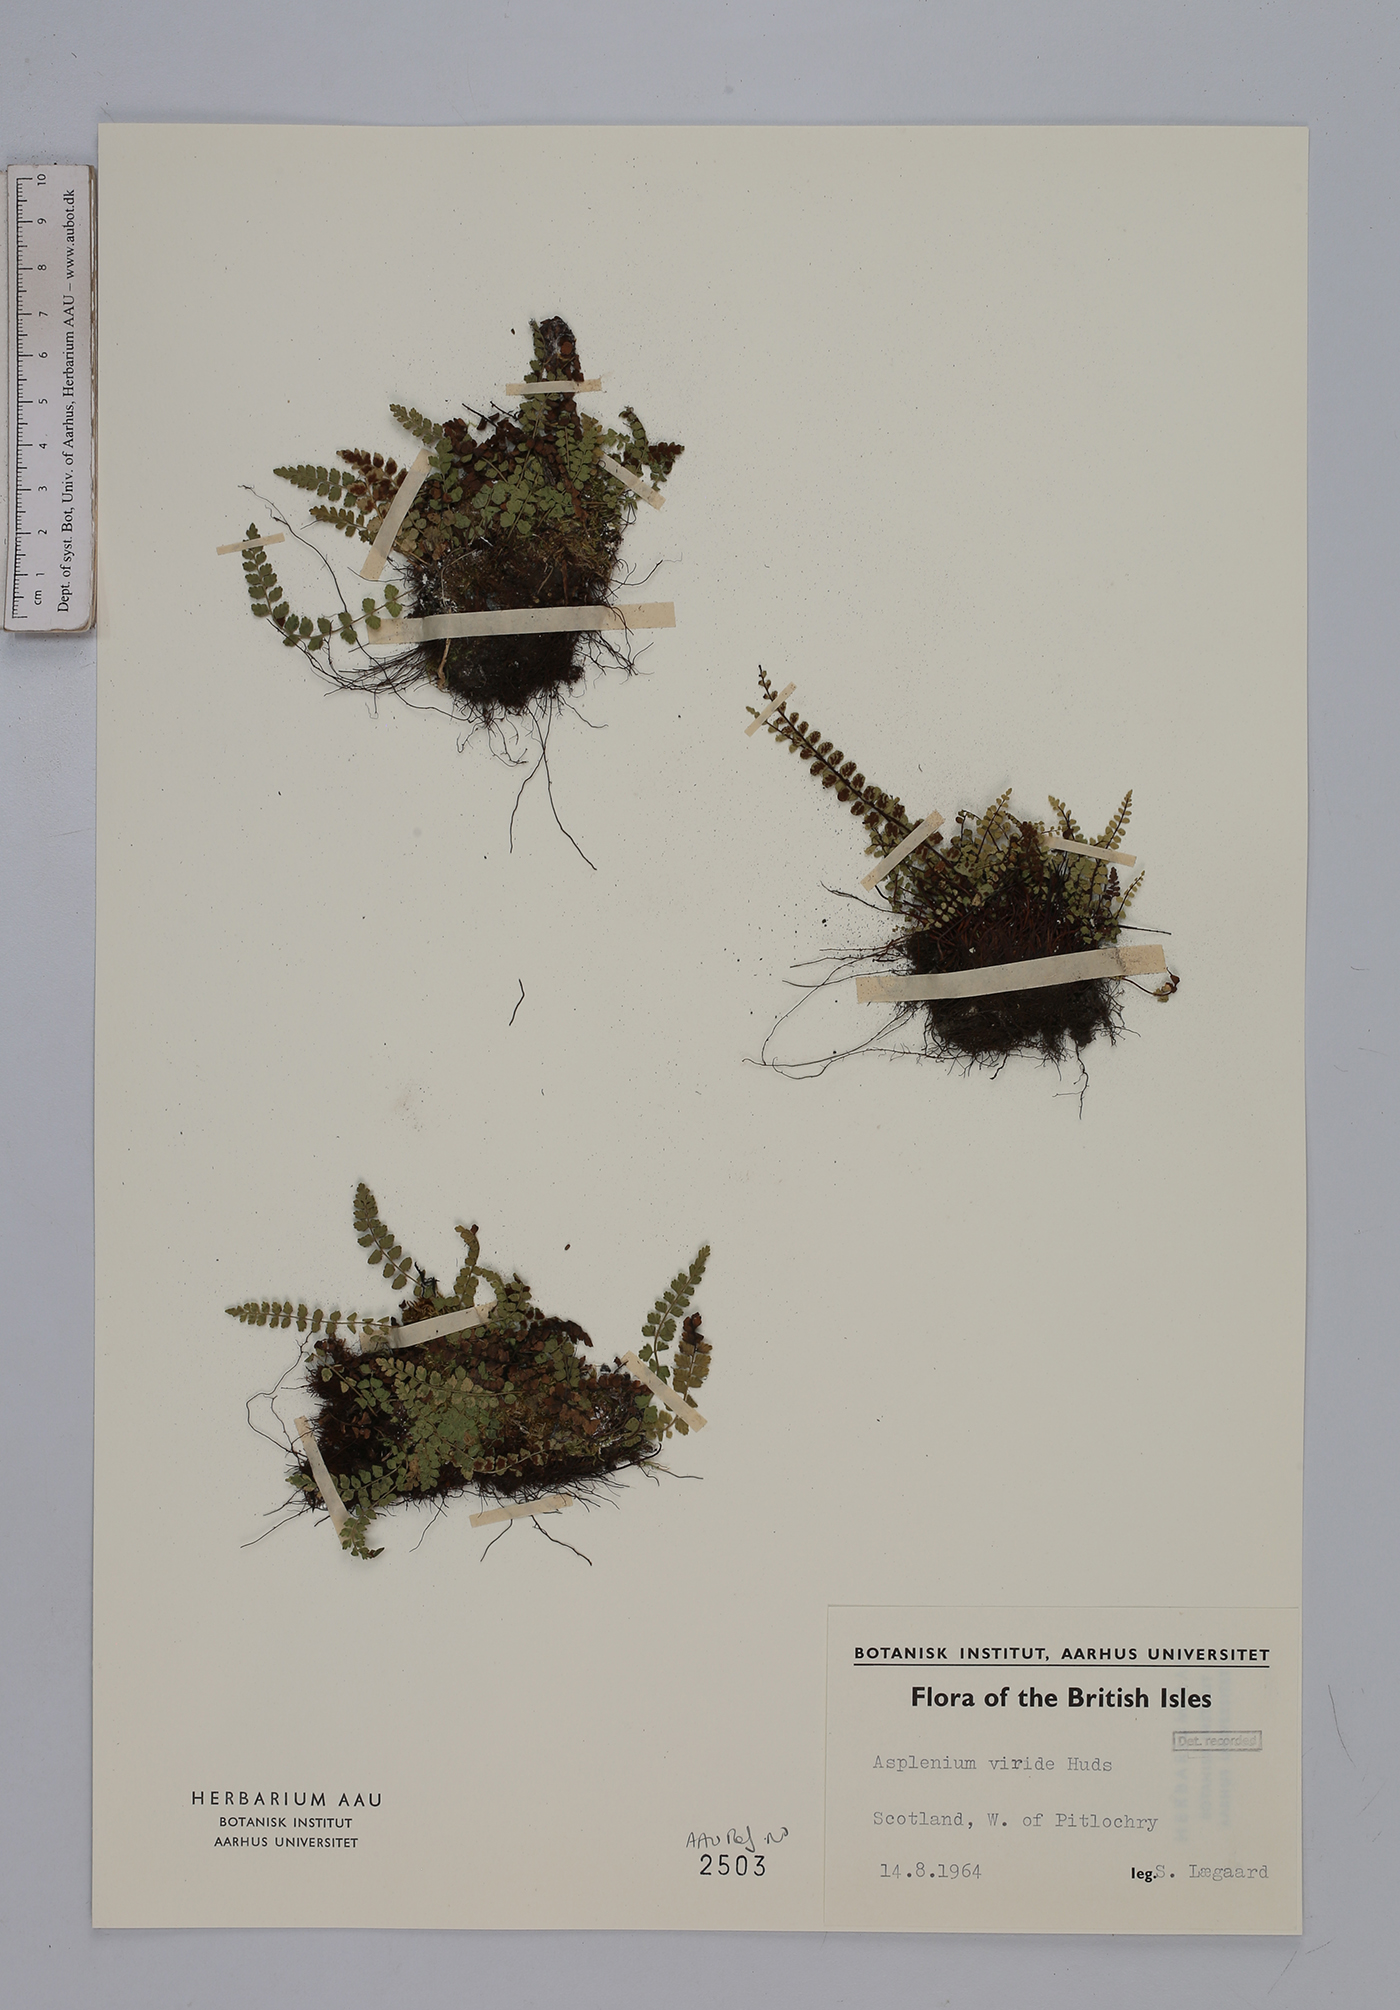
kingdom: Plantae
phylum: Tracheophyta
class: Polypodiopsida
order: Polypodiales
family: Aspleniaceae
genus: Asplenium
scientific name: Asplenium viride
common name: Green spleenwort
